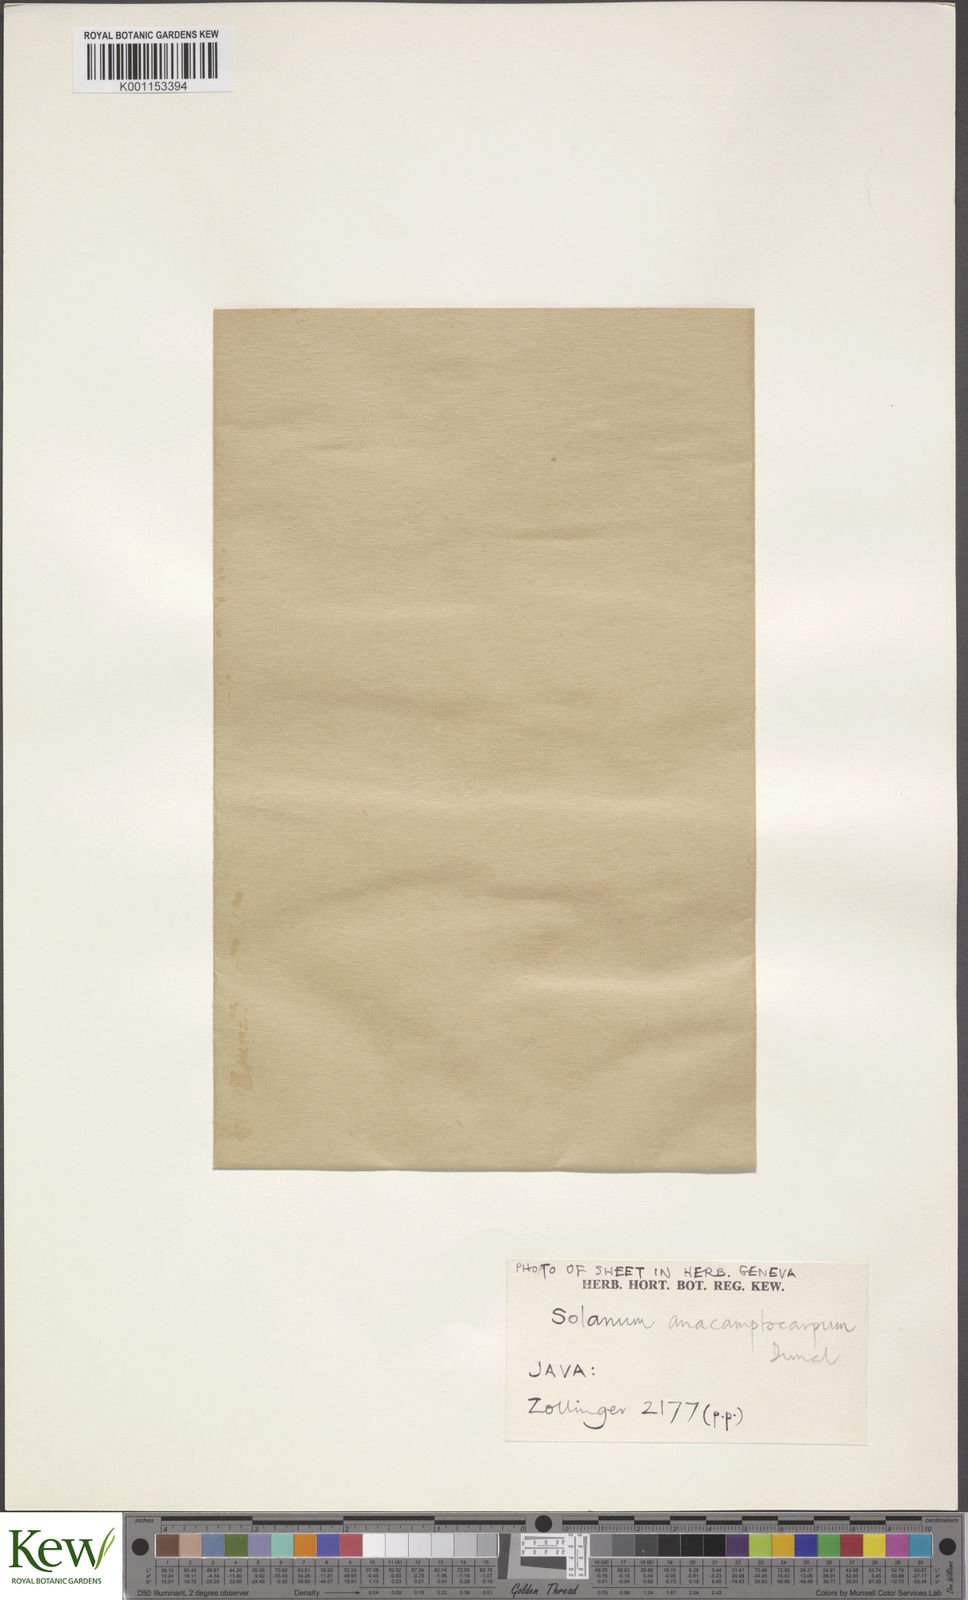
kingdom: Plantae
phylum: Tracheophyta
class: Magnoliopsida
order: Solanales
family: Solanaceae
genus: Solanum
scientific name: Solanum alpinum
